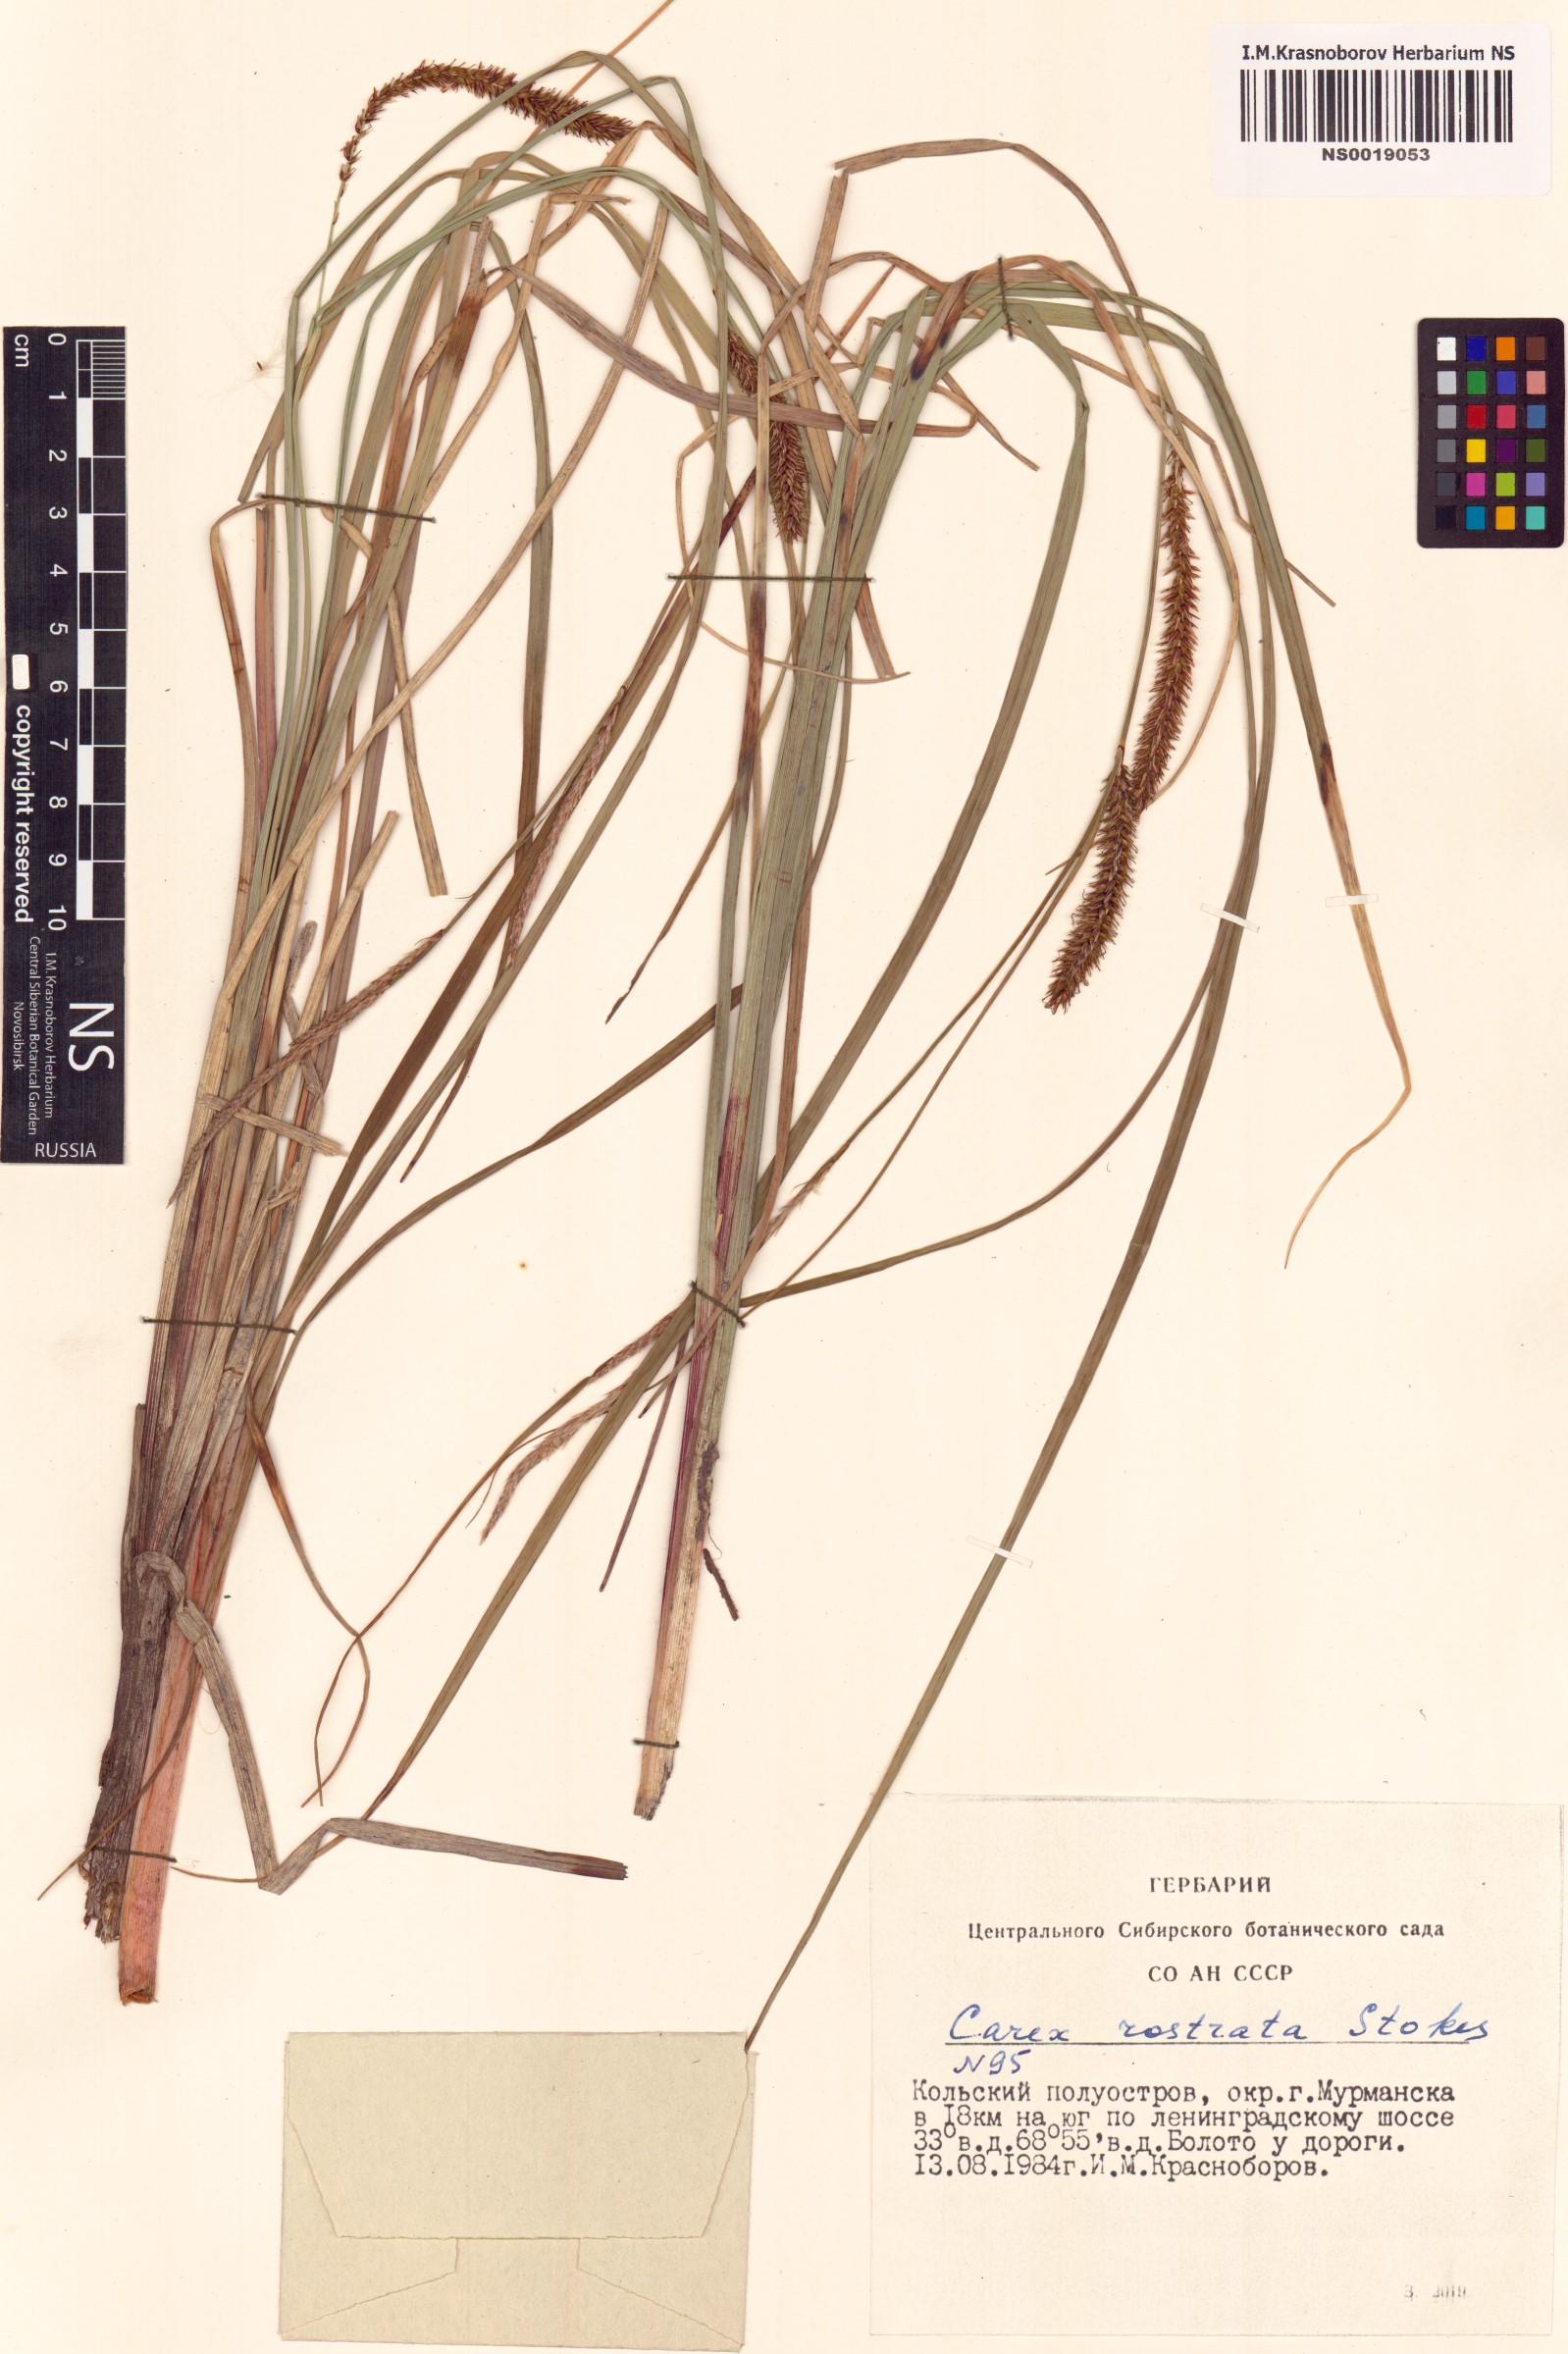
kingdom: Plantae
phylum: Tracheophyta
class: Liliopsida
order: Poales
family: Cyperaceae
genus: Carex
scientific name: Carex rostrata
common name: Bottle sedge
